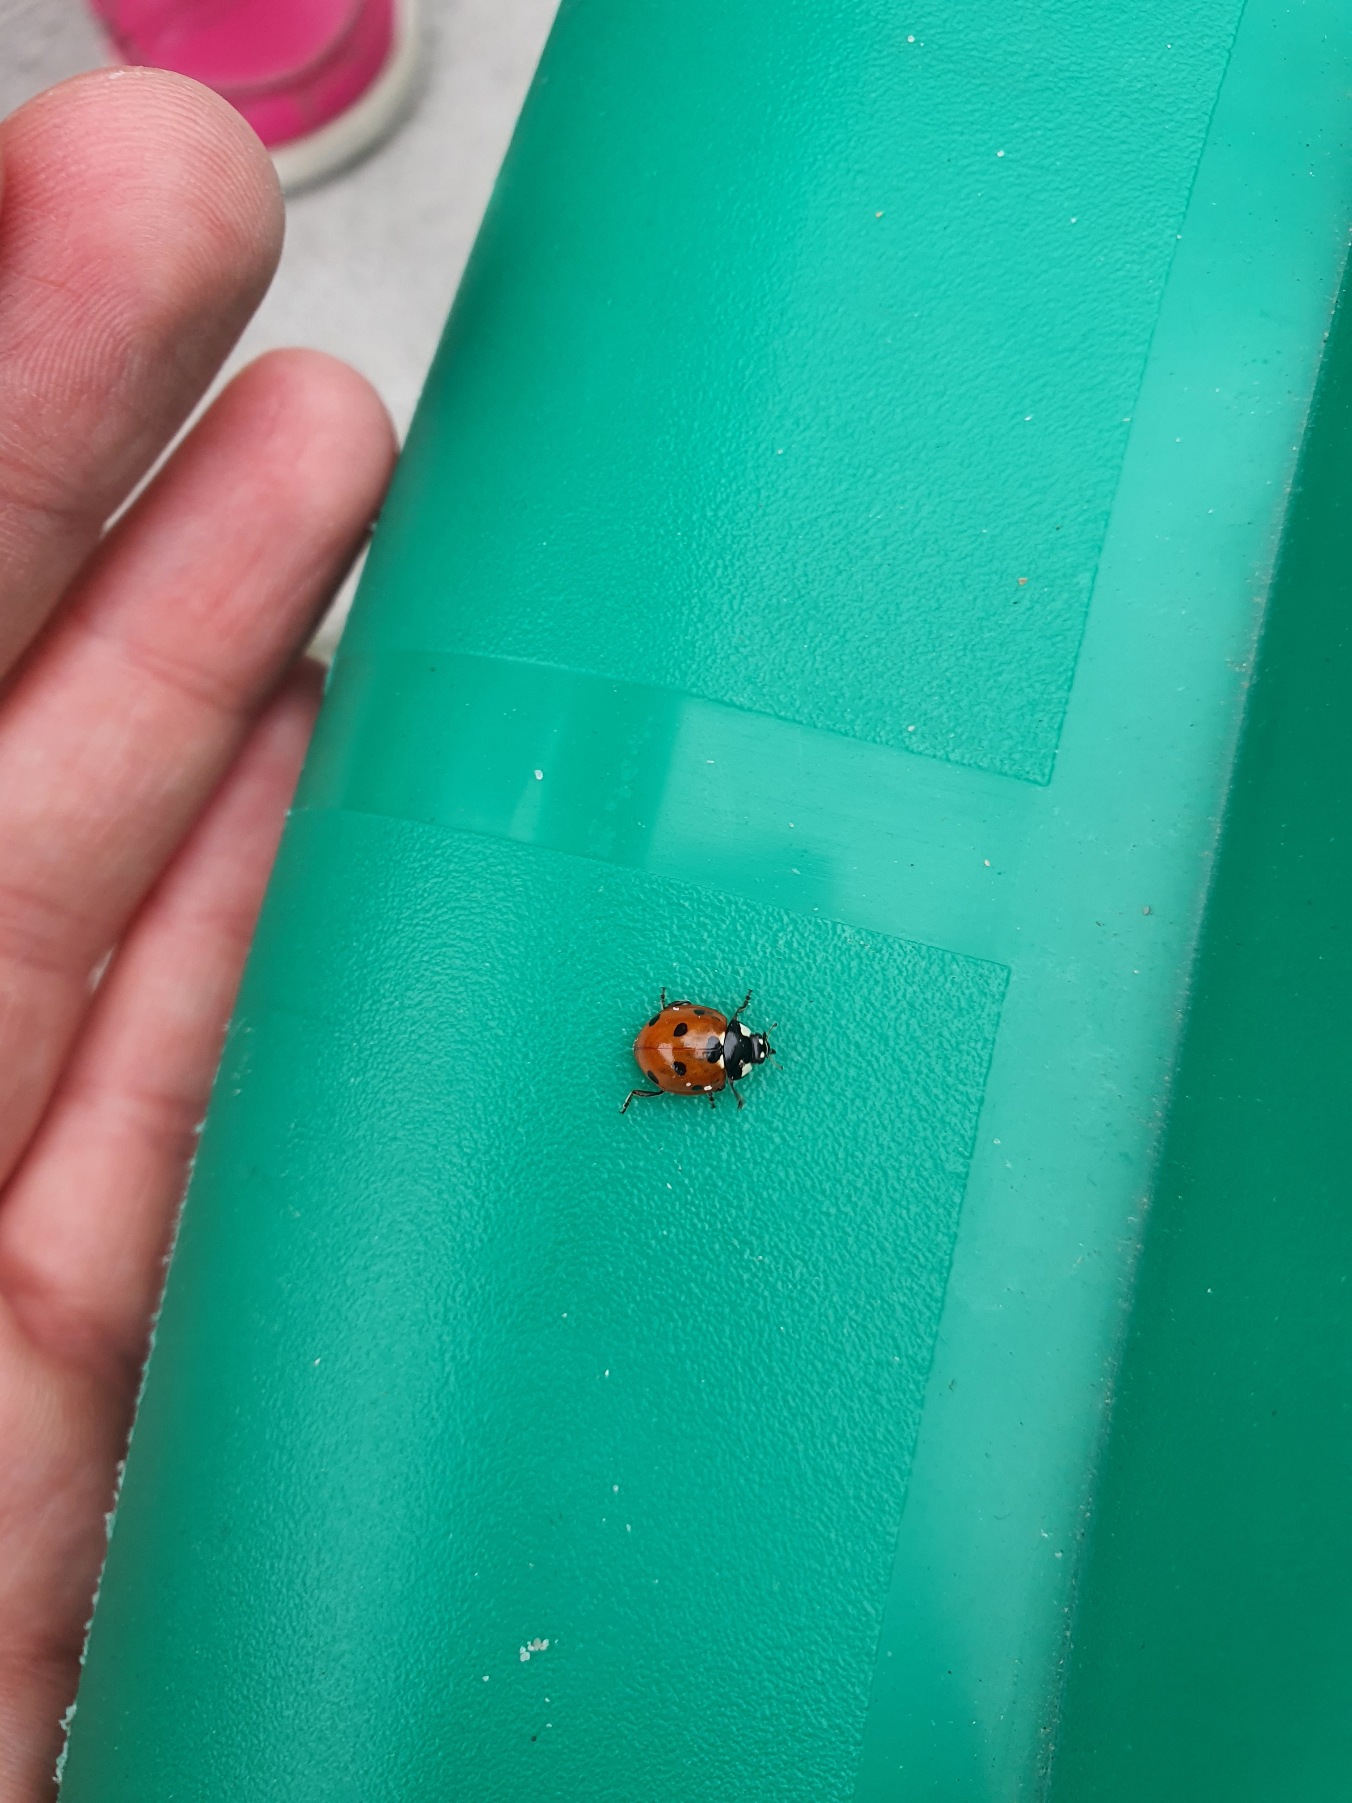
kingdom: Animalia
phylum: Arthropoda
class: Insecta
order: Coleoptera
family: Coccinellidae
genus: Coccinella
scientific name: Coccinella septempunctata
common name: Syvplettet mariehøne
